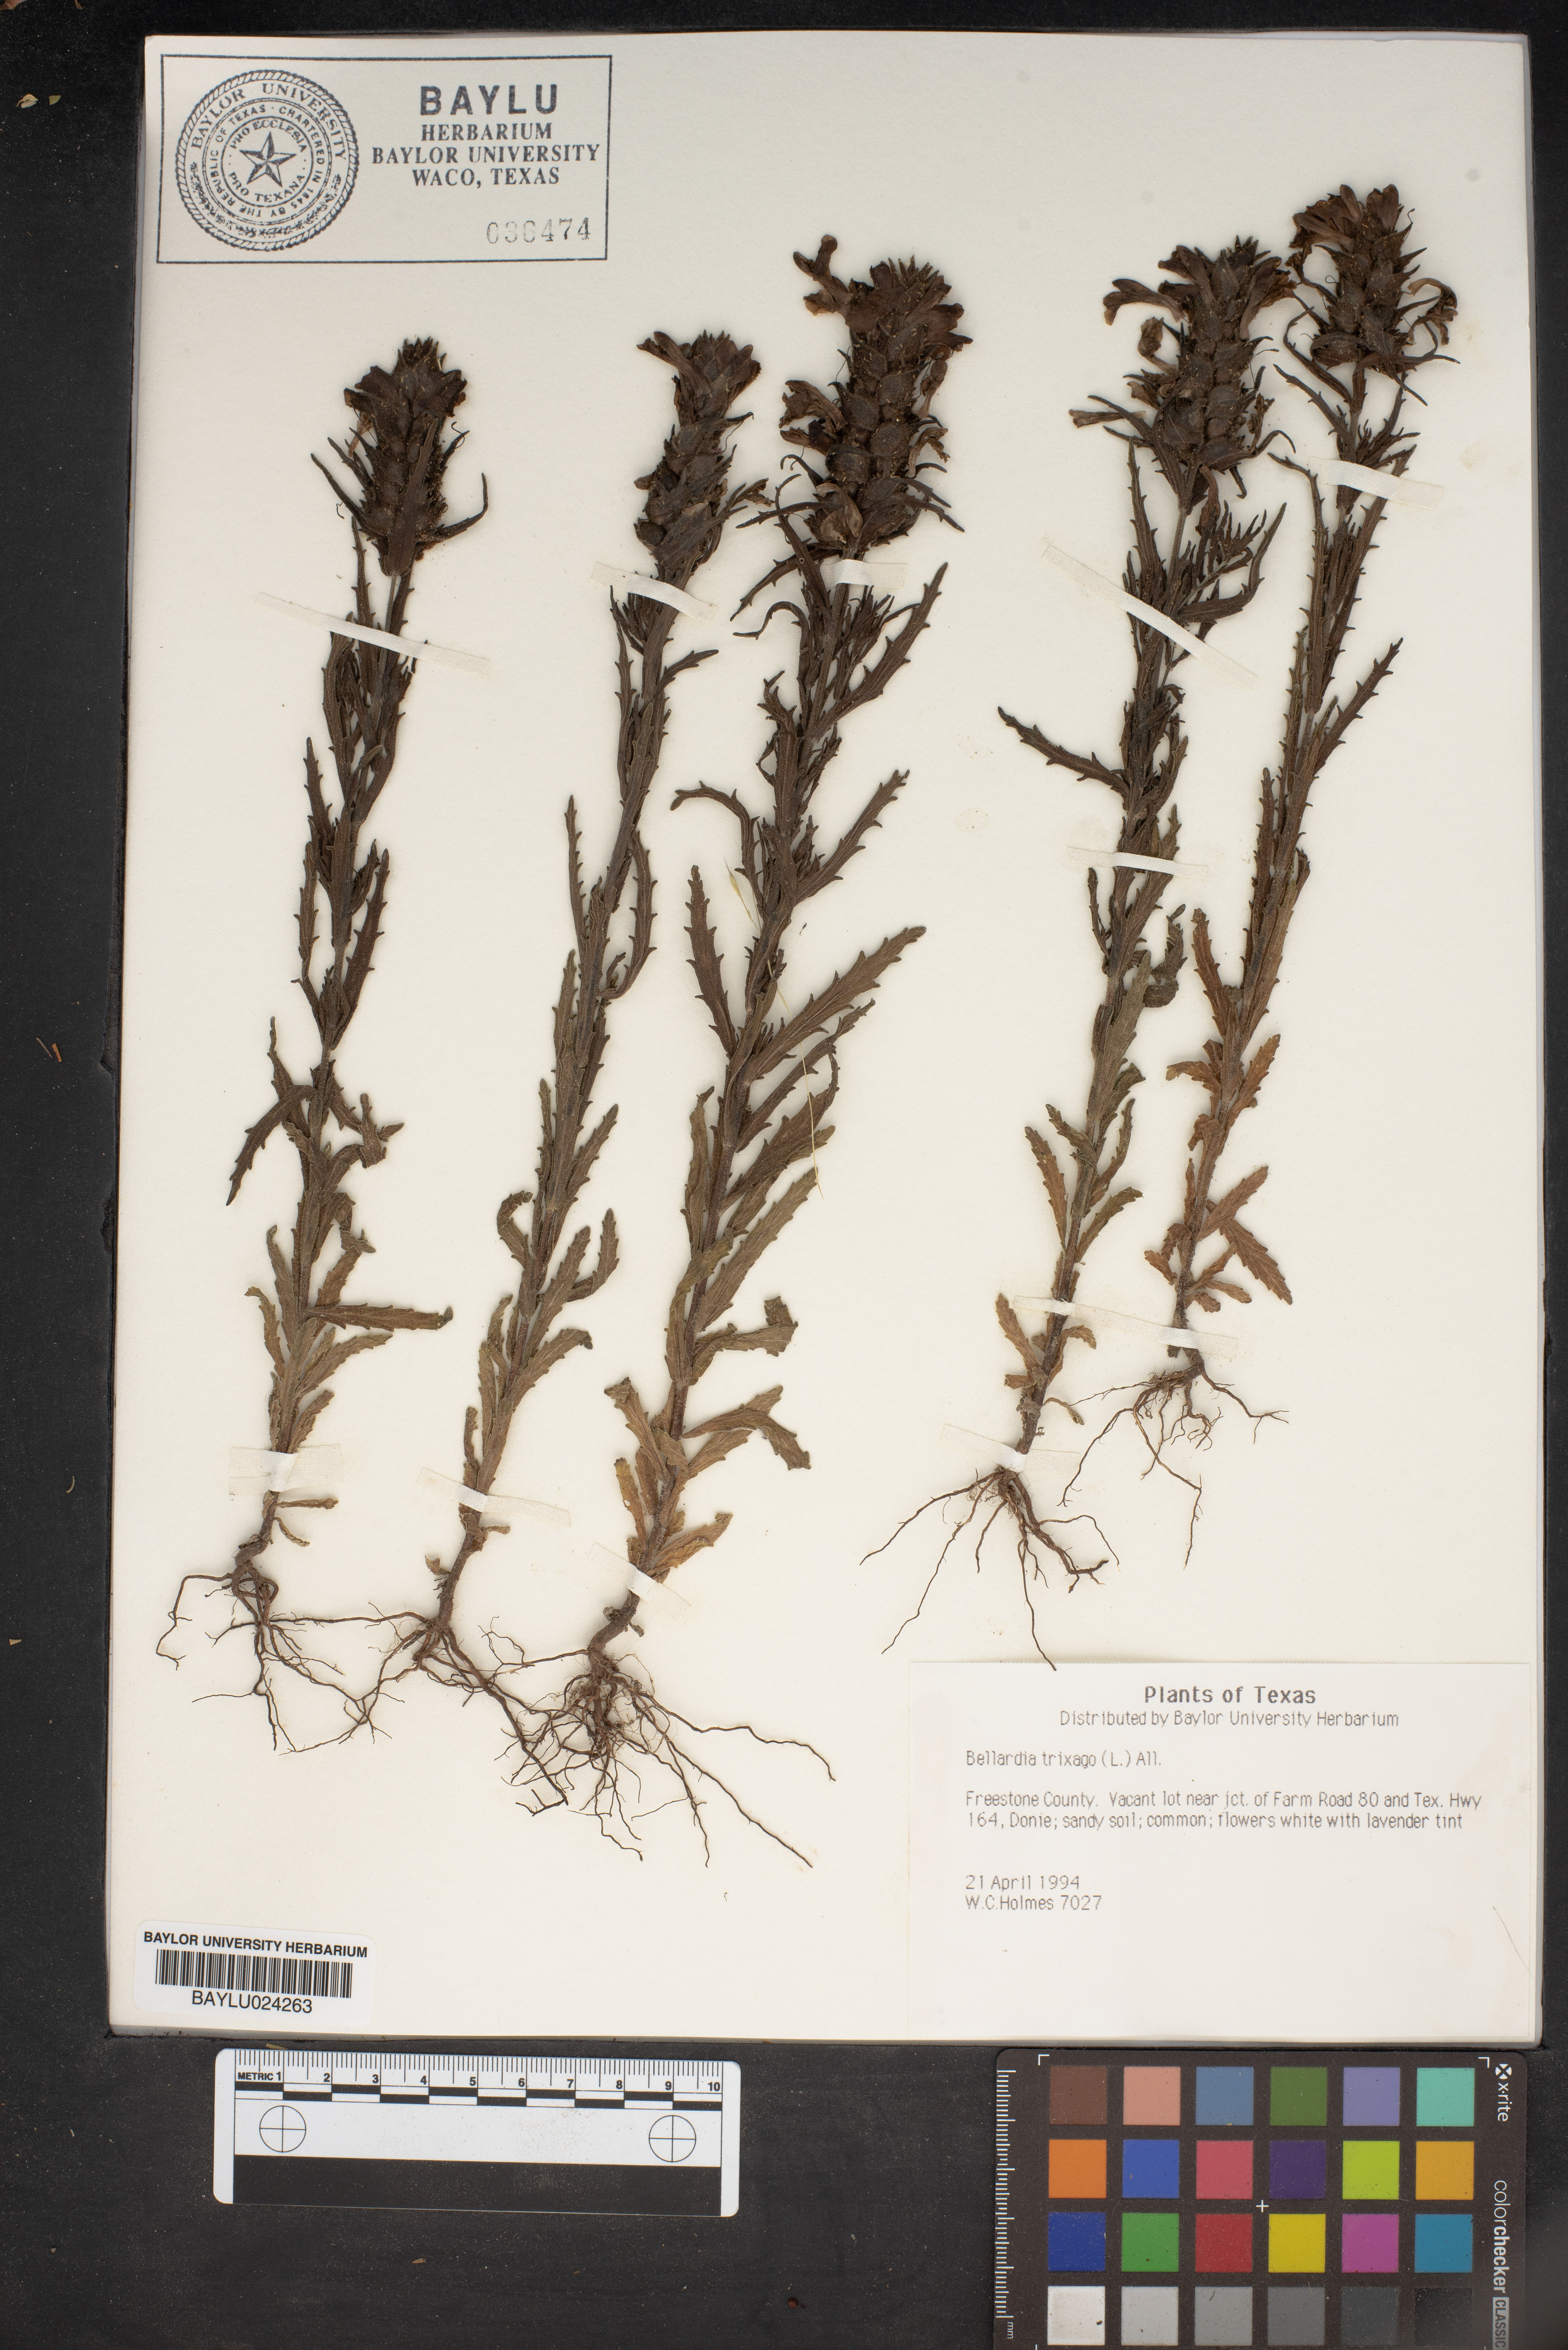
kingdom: Plantae
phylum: Tracheophyta
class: Magnoliopsida
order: Lamiales
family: Orobanchaceae
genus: Bellardia
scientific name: Bellardia trixago
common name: Mediterranean lineseed
